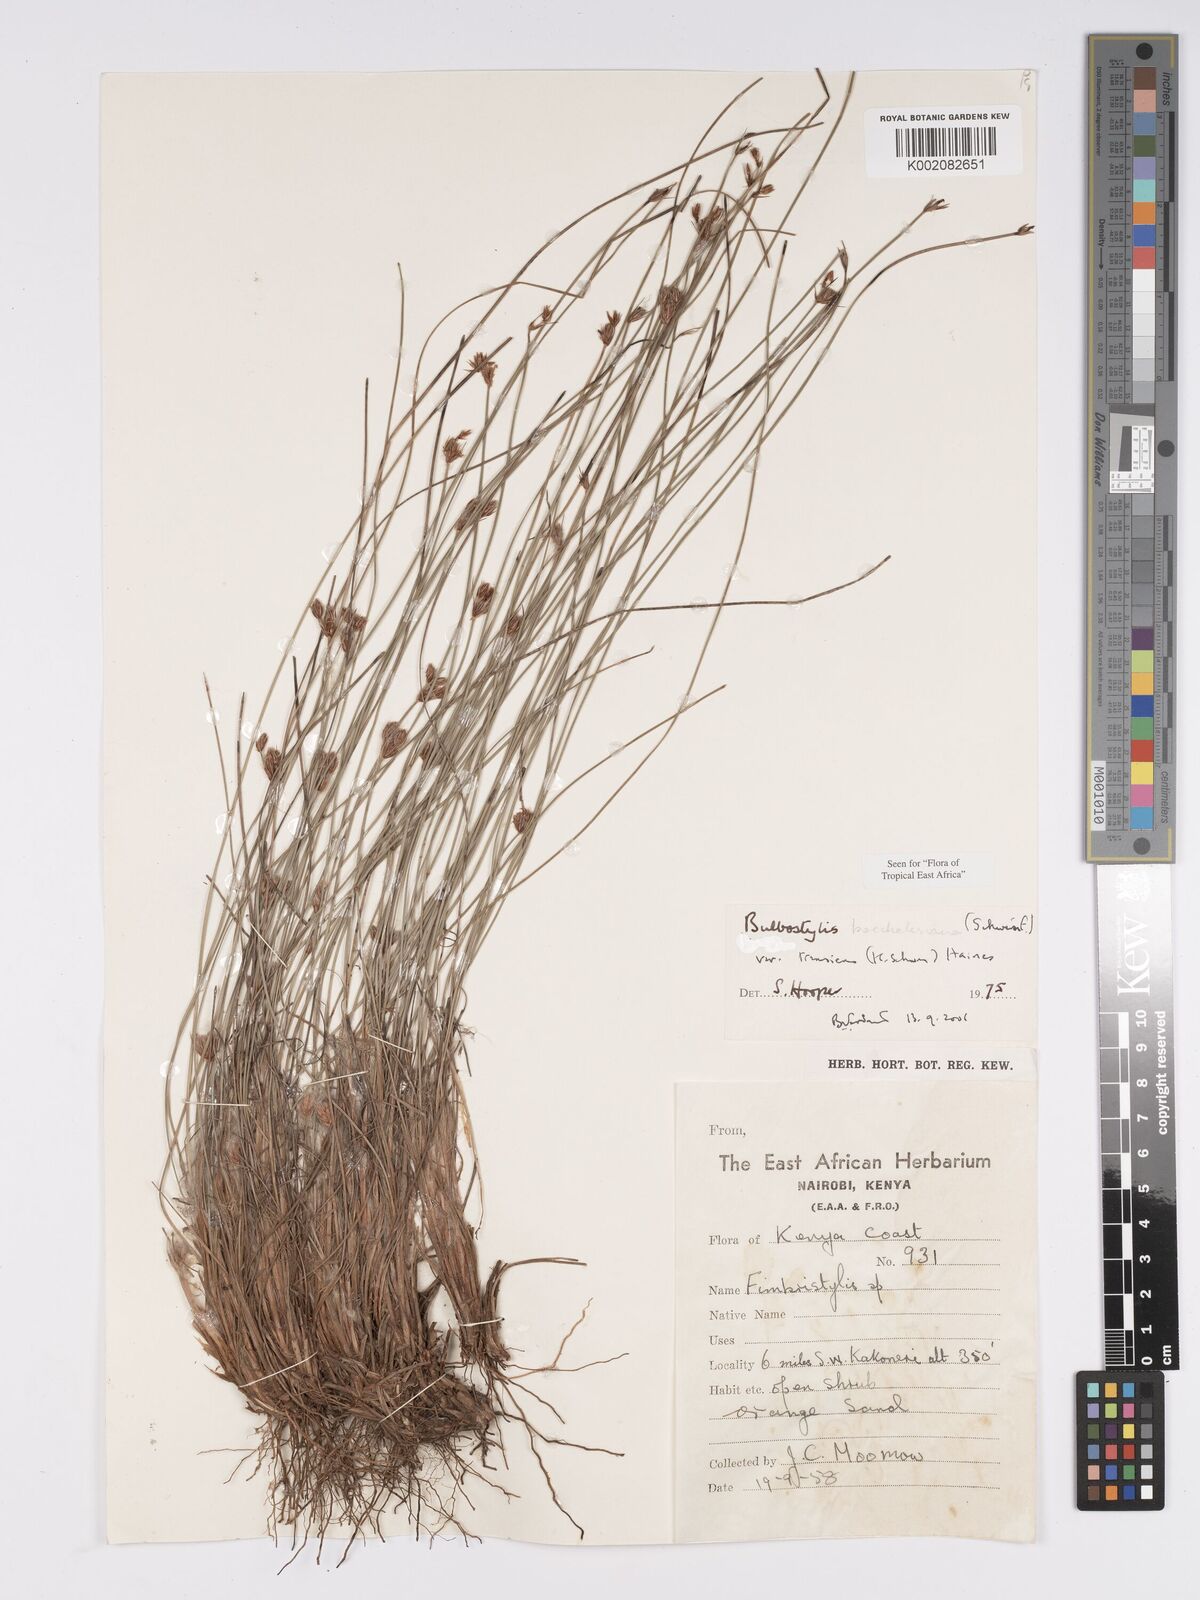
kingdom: Plantae
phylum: Tracheophyta
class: Liliopsida
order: Poales
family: Cyperaceae
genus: Bulbostylis
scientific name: Bulbostylis boeckeleriana
